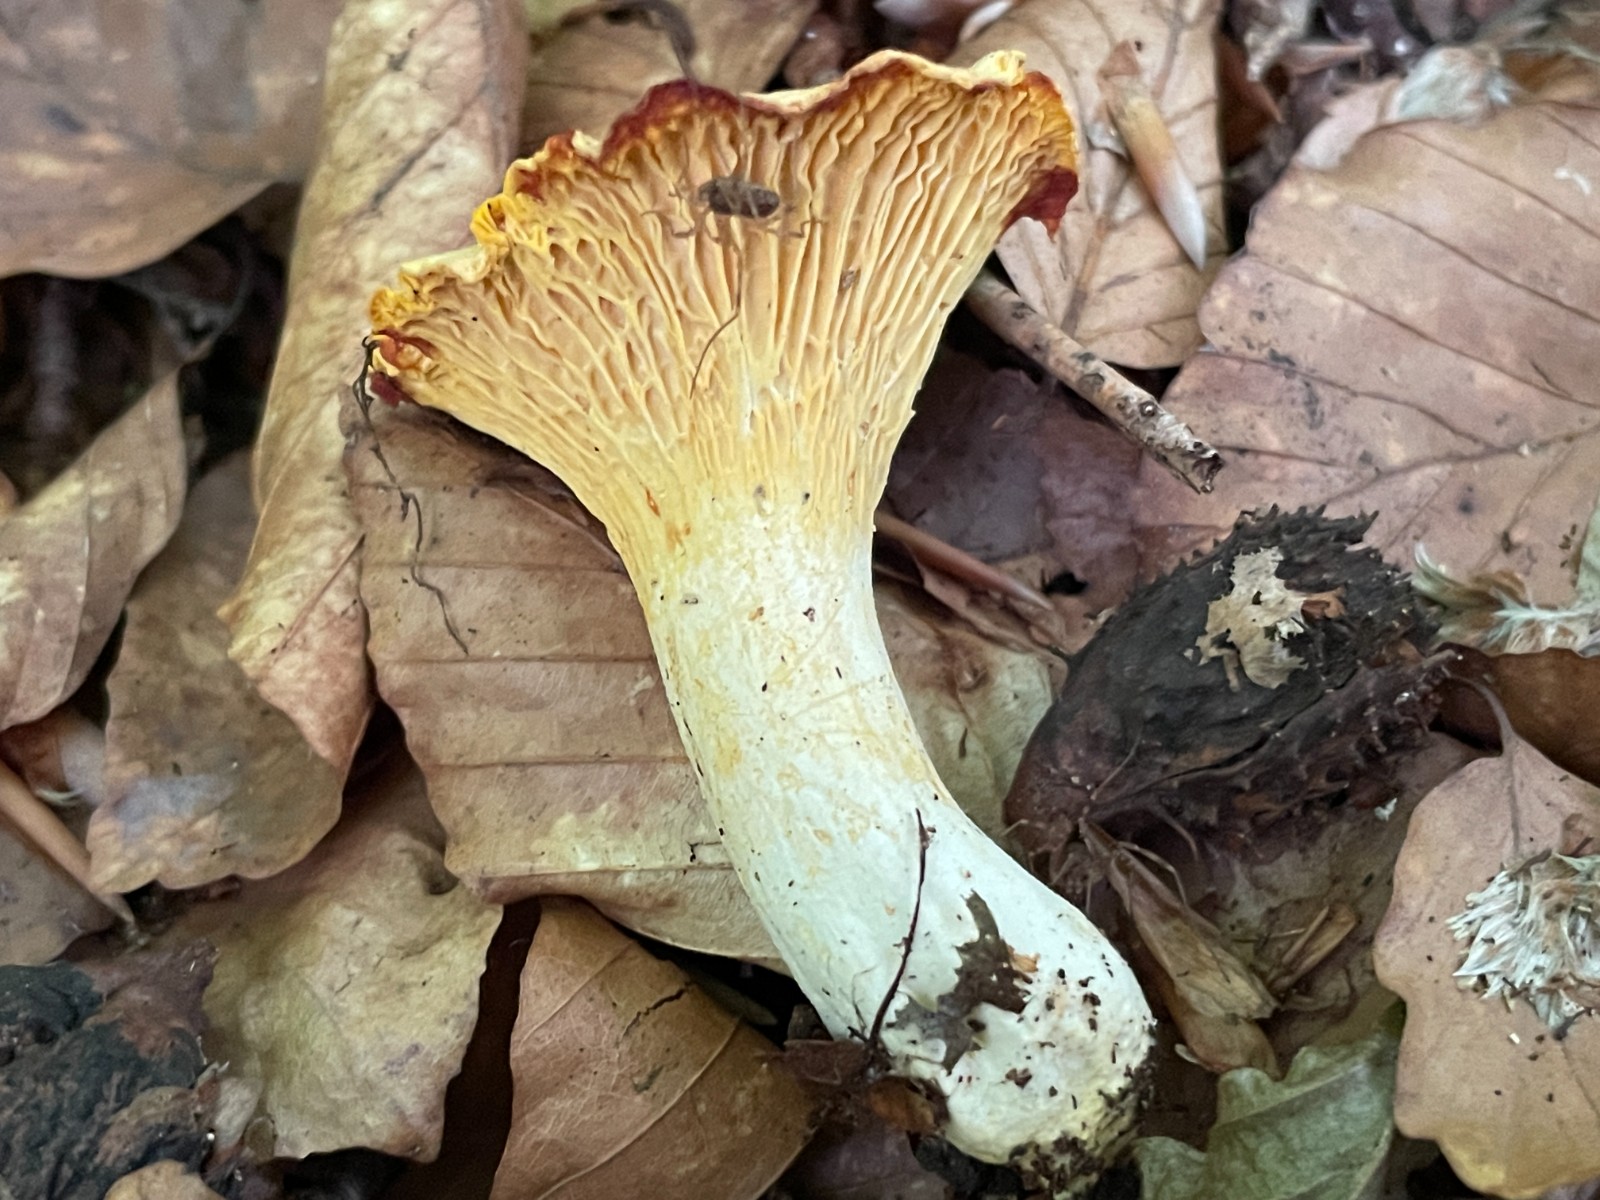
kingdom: Fungi
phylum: Basidiomycota
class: Agaricomycetes
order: Cantharellales
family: Hydnaceae
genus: Cantharellus
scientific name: Cantharellus pallens
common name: bleg kantarel
